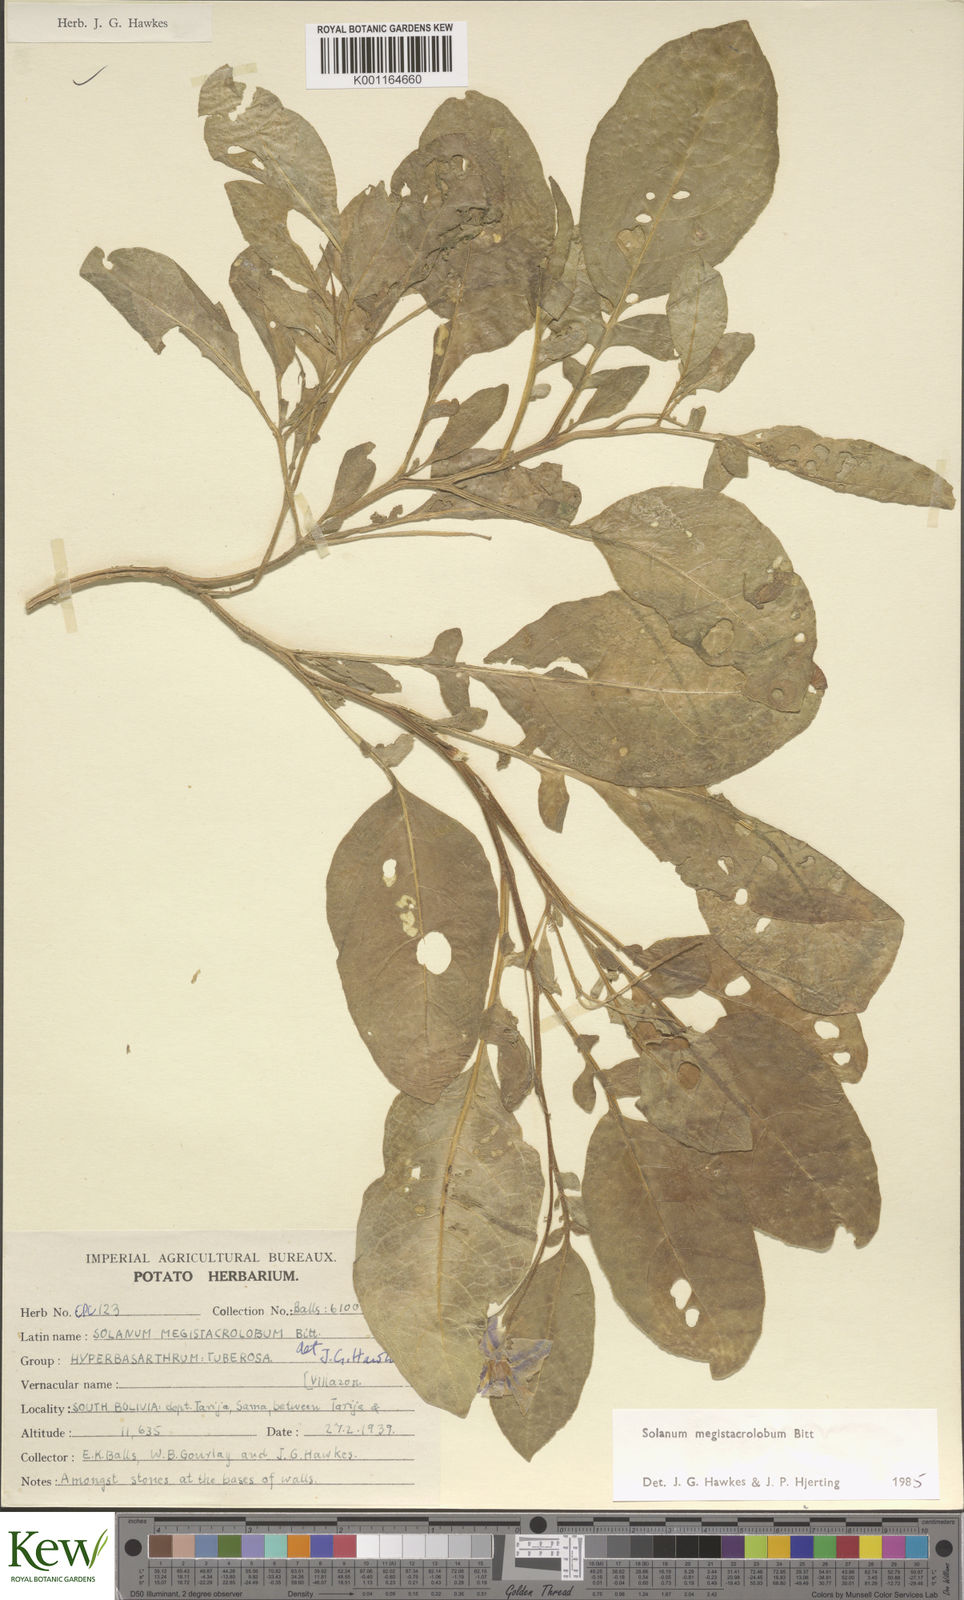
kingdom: Plantae
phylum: Tracheophyta
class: Magnoliopsida
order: Solanales
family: Solanaceae
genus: Solanum
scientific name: Solanum boliviense
